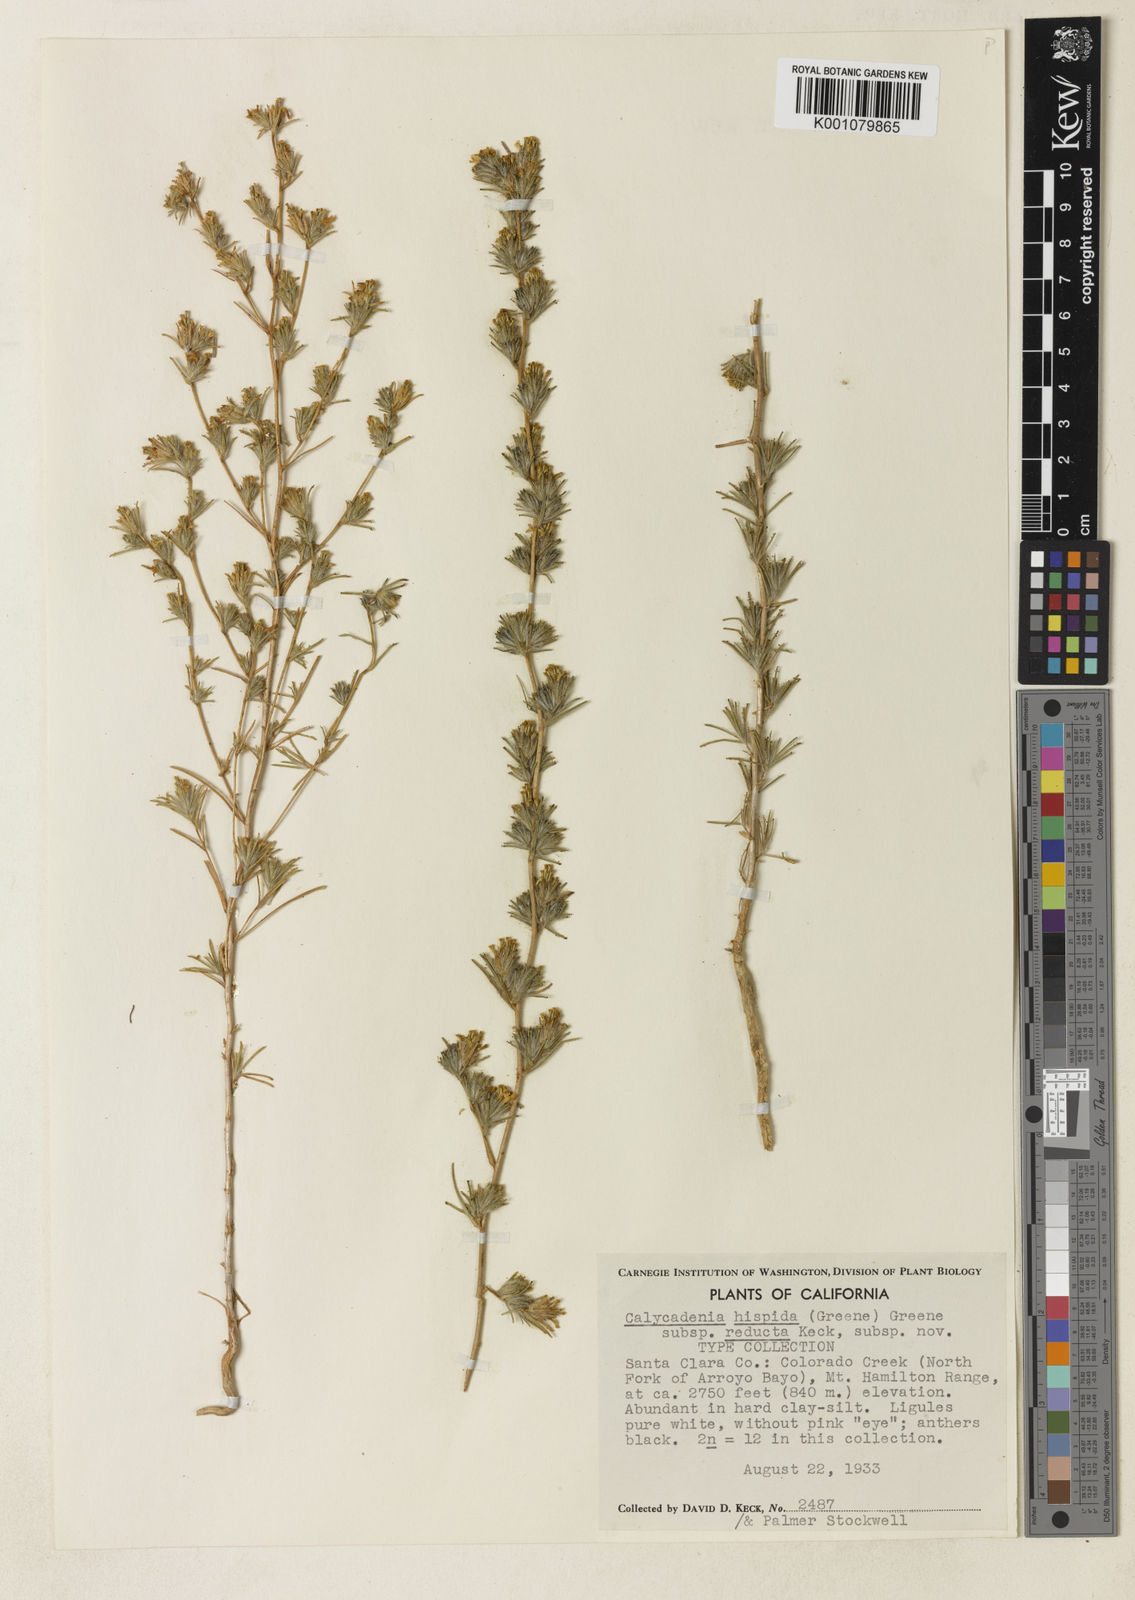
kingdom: Plantae
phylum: Tracheophyta
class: Magnoliopsida
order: Asterales
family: Asteraceae
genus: Calycadenia
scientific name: Calycadenia villosa
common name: Dwarf calycadenia
